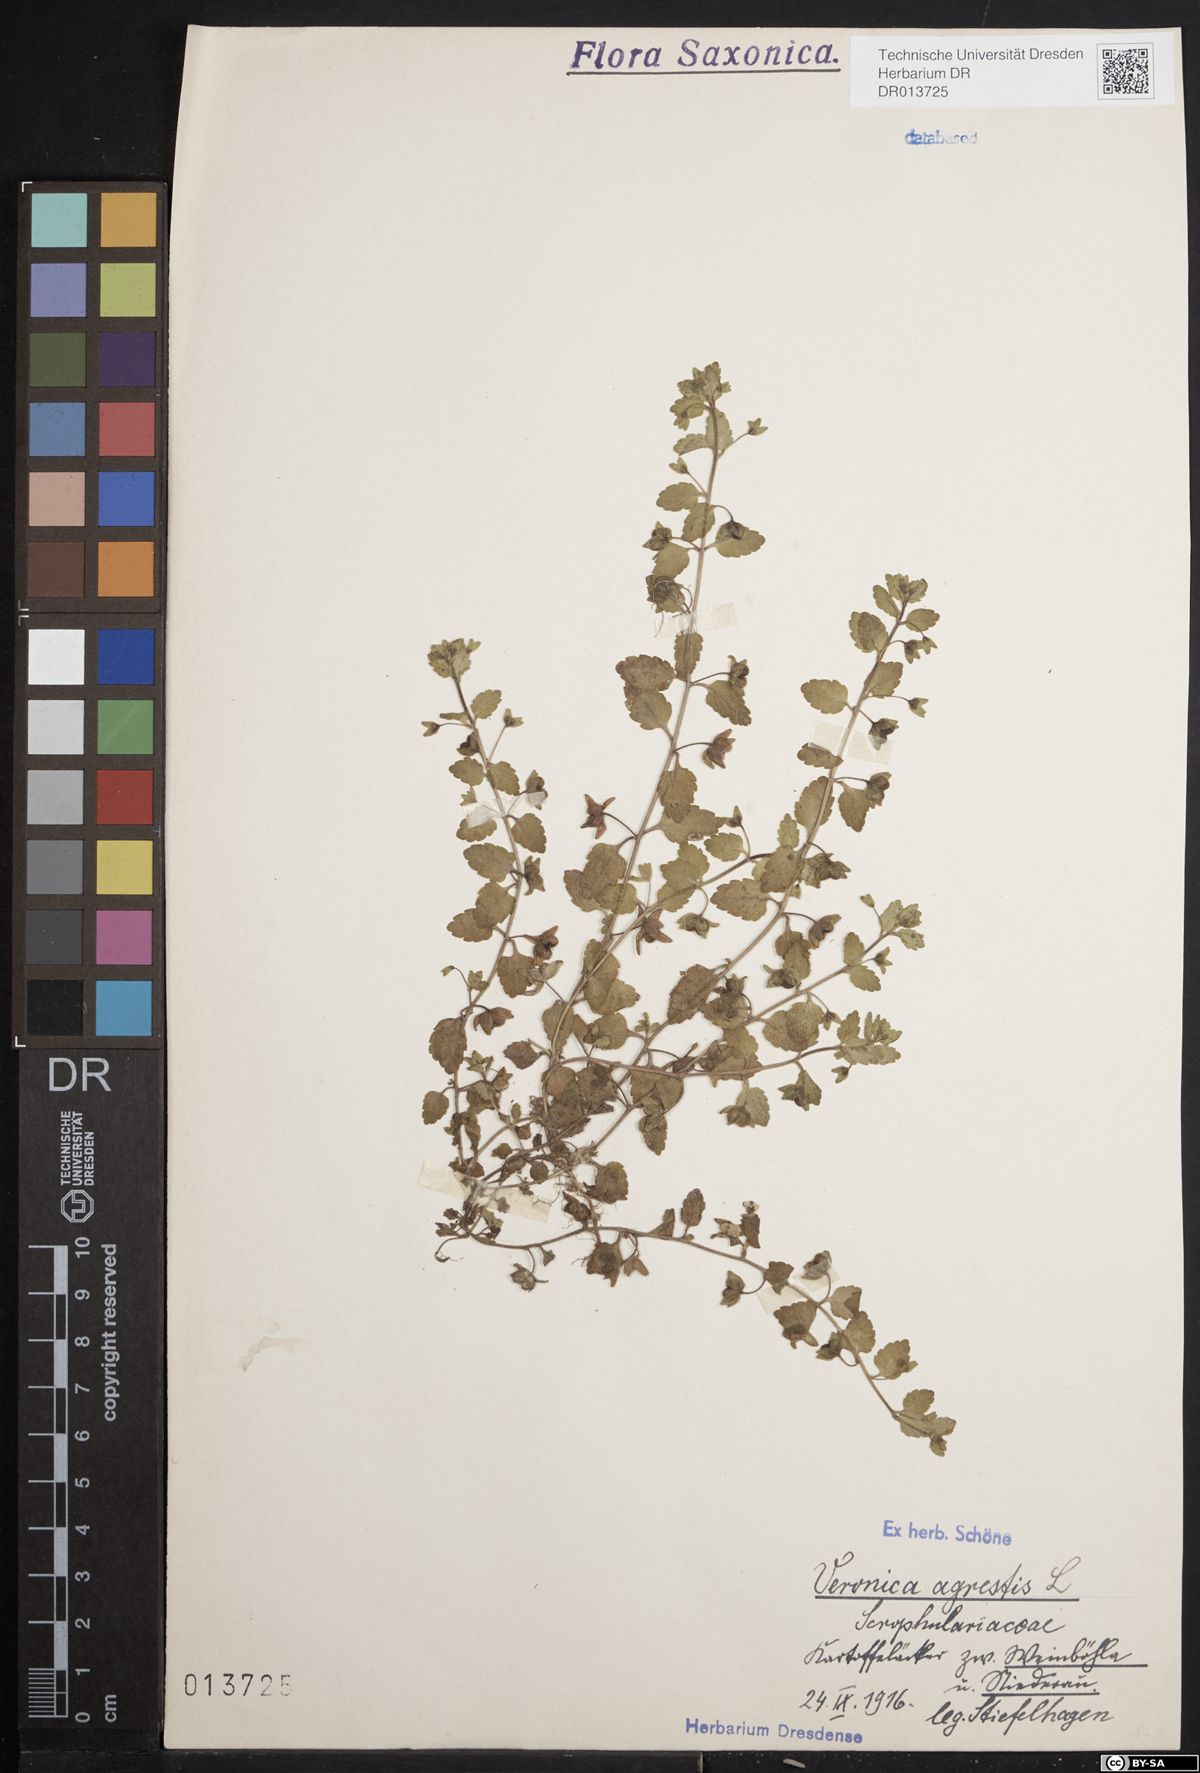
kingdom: Plantae
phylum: Tracheophyta
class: Magnoliopsida
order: Lamiales
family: Plantaginaceae
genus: Veronica
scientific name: Veronica agrestis
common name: Green field-speedwell
